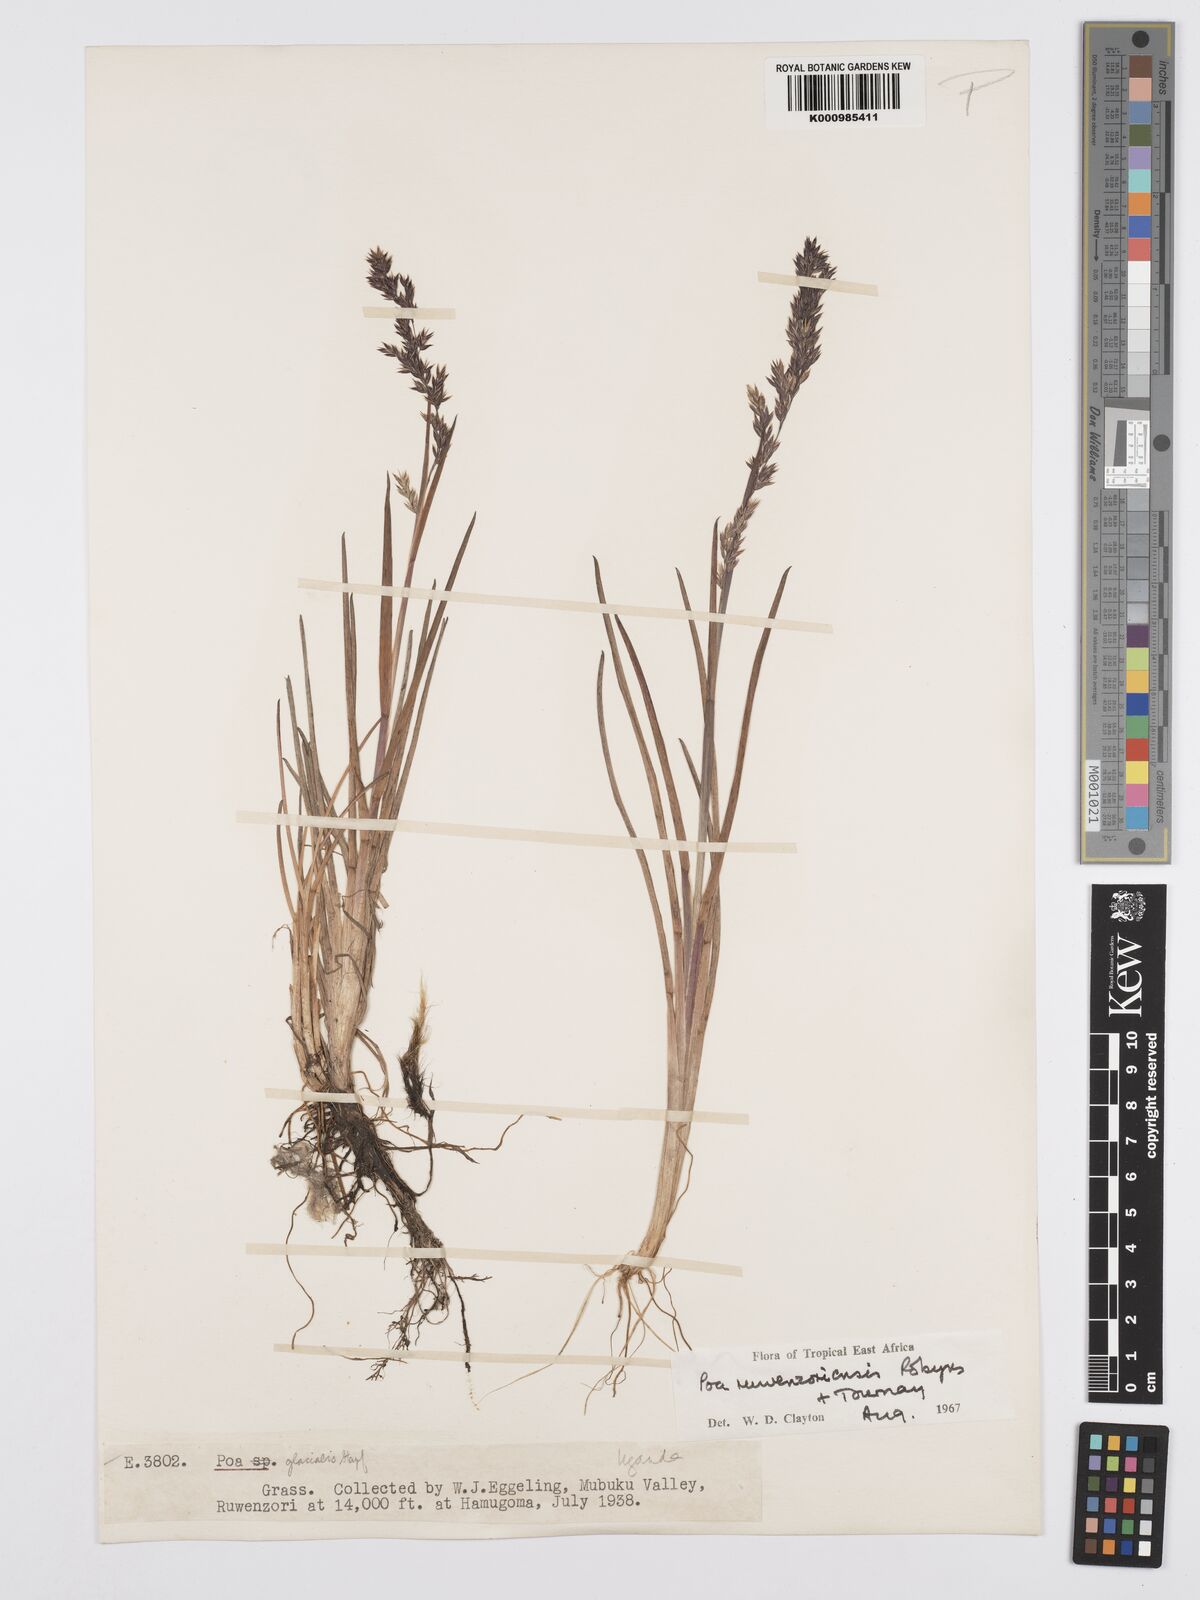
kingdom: Plantae
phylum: Tracheophyta
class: Liliopsida
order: Poales
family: Poaceae
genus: Poa
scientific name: Poa ruwenzoriensis
